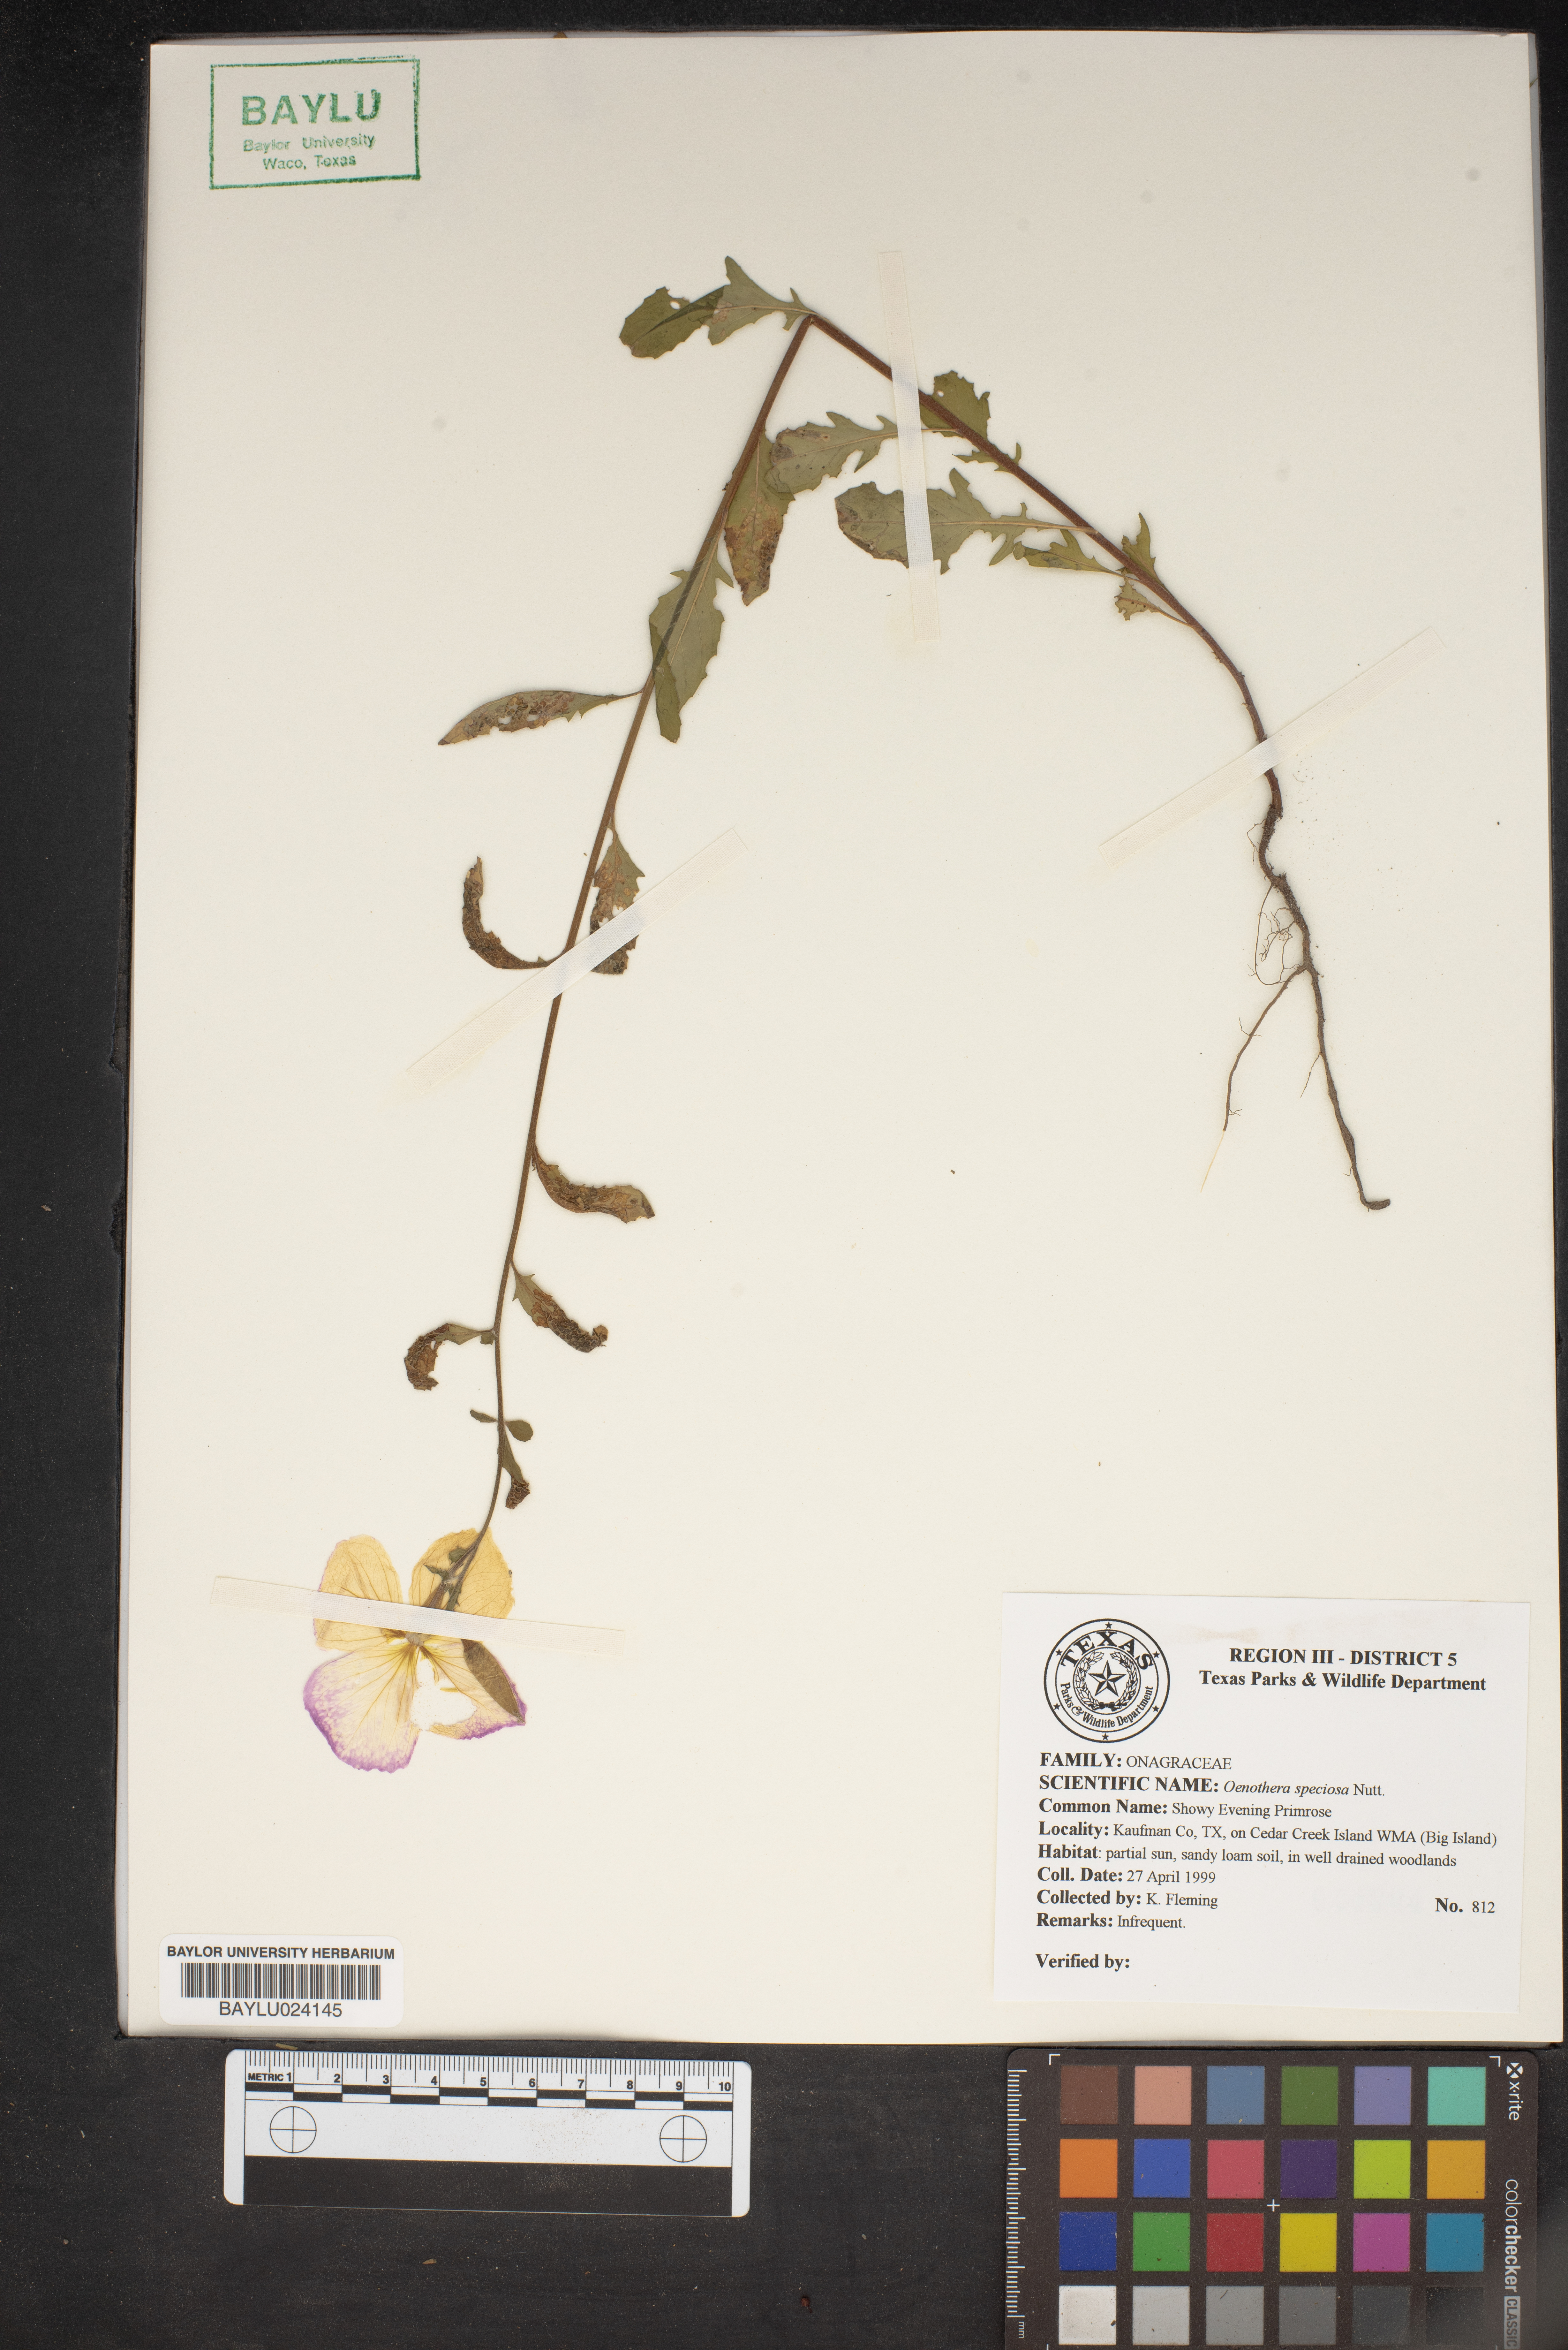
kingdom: Plantae
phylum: Tracheophyta
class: Magnoliopsida
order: Myrtales
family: Onagraceae
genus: Oenothera
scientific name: Oenothera speciosa
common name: White evening-primrose
